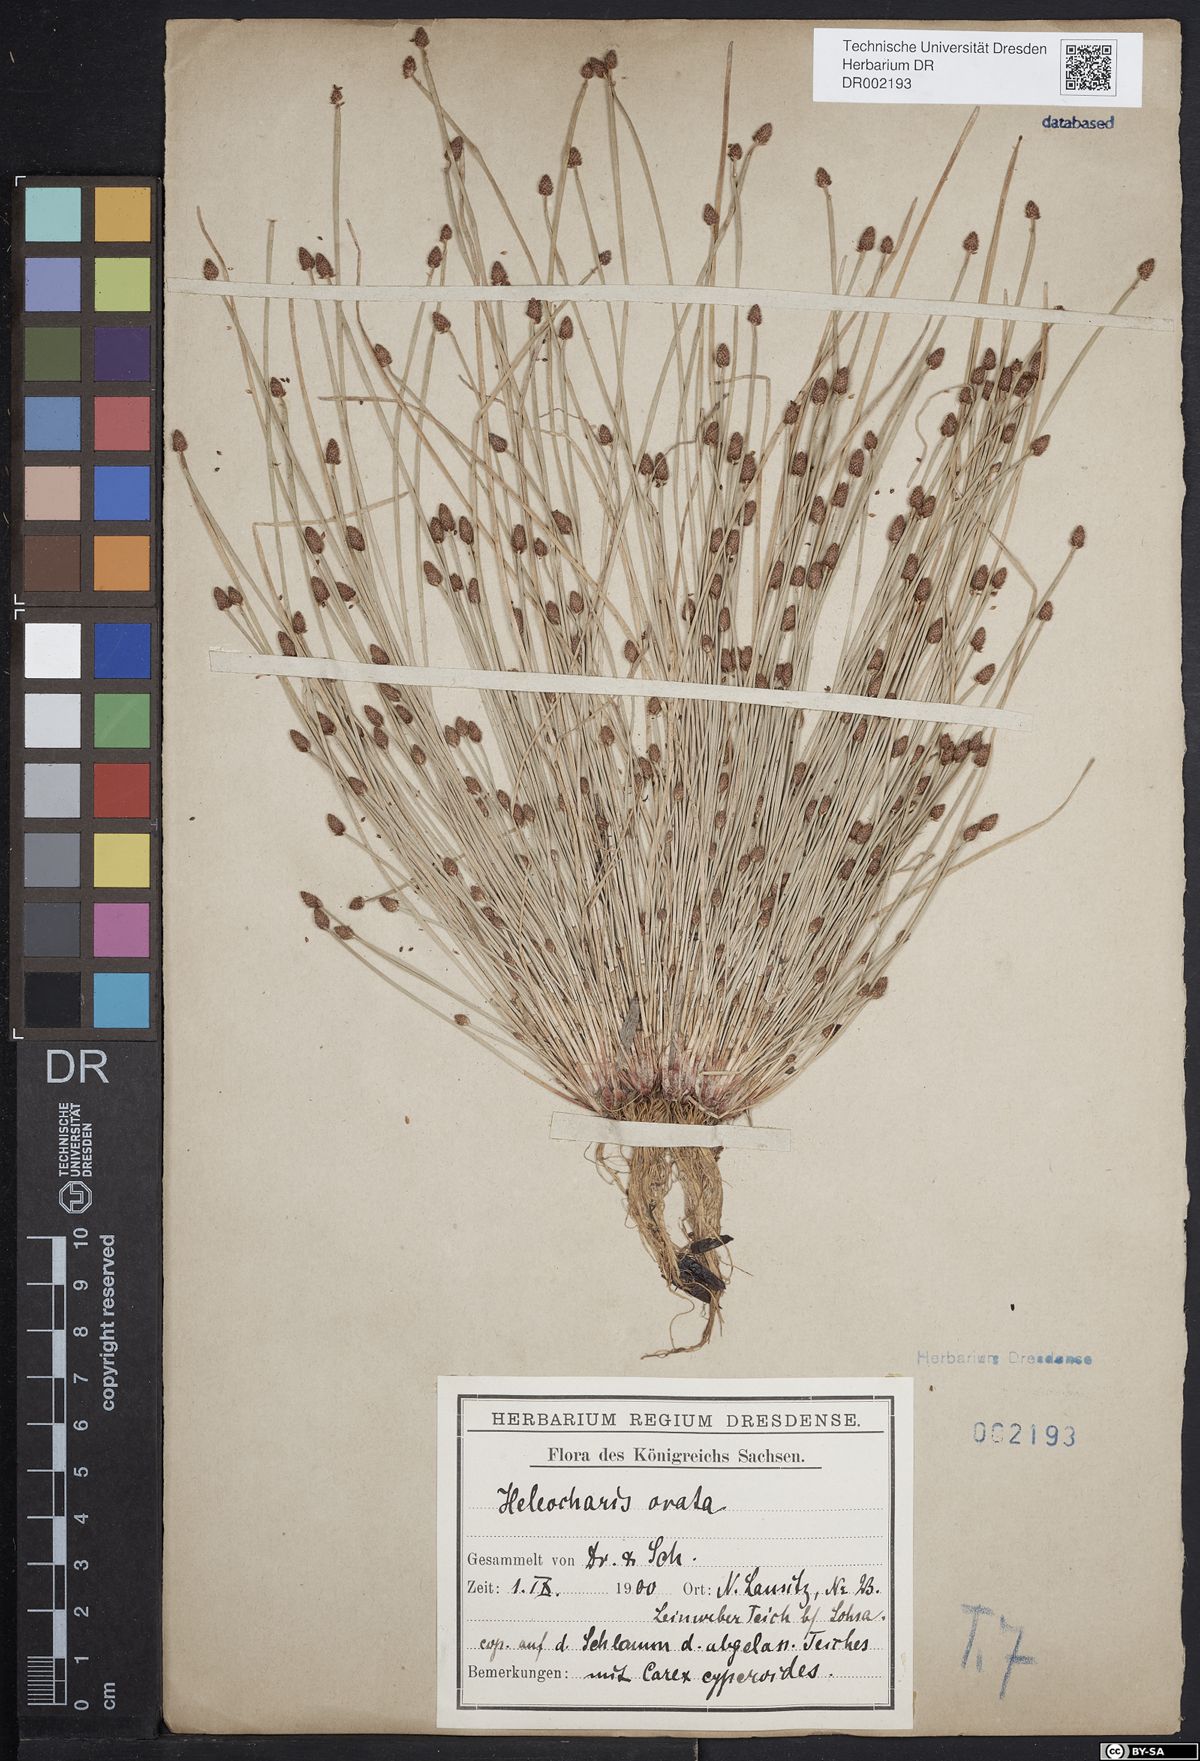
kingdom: Plantae
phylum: Tracheophyta
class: Liliopsida
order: Poales
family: Cyperaceae
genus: Eleocharis
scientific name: Eleocharis ovata
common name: Oval spike-rush
